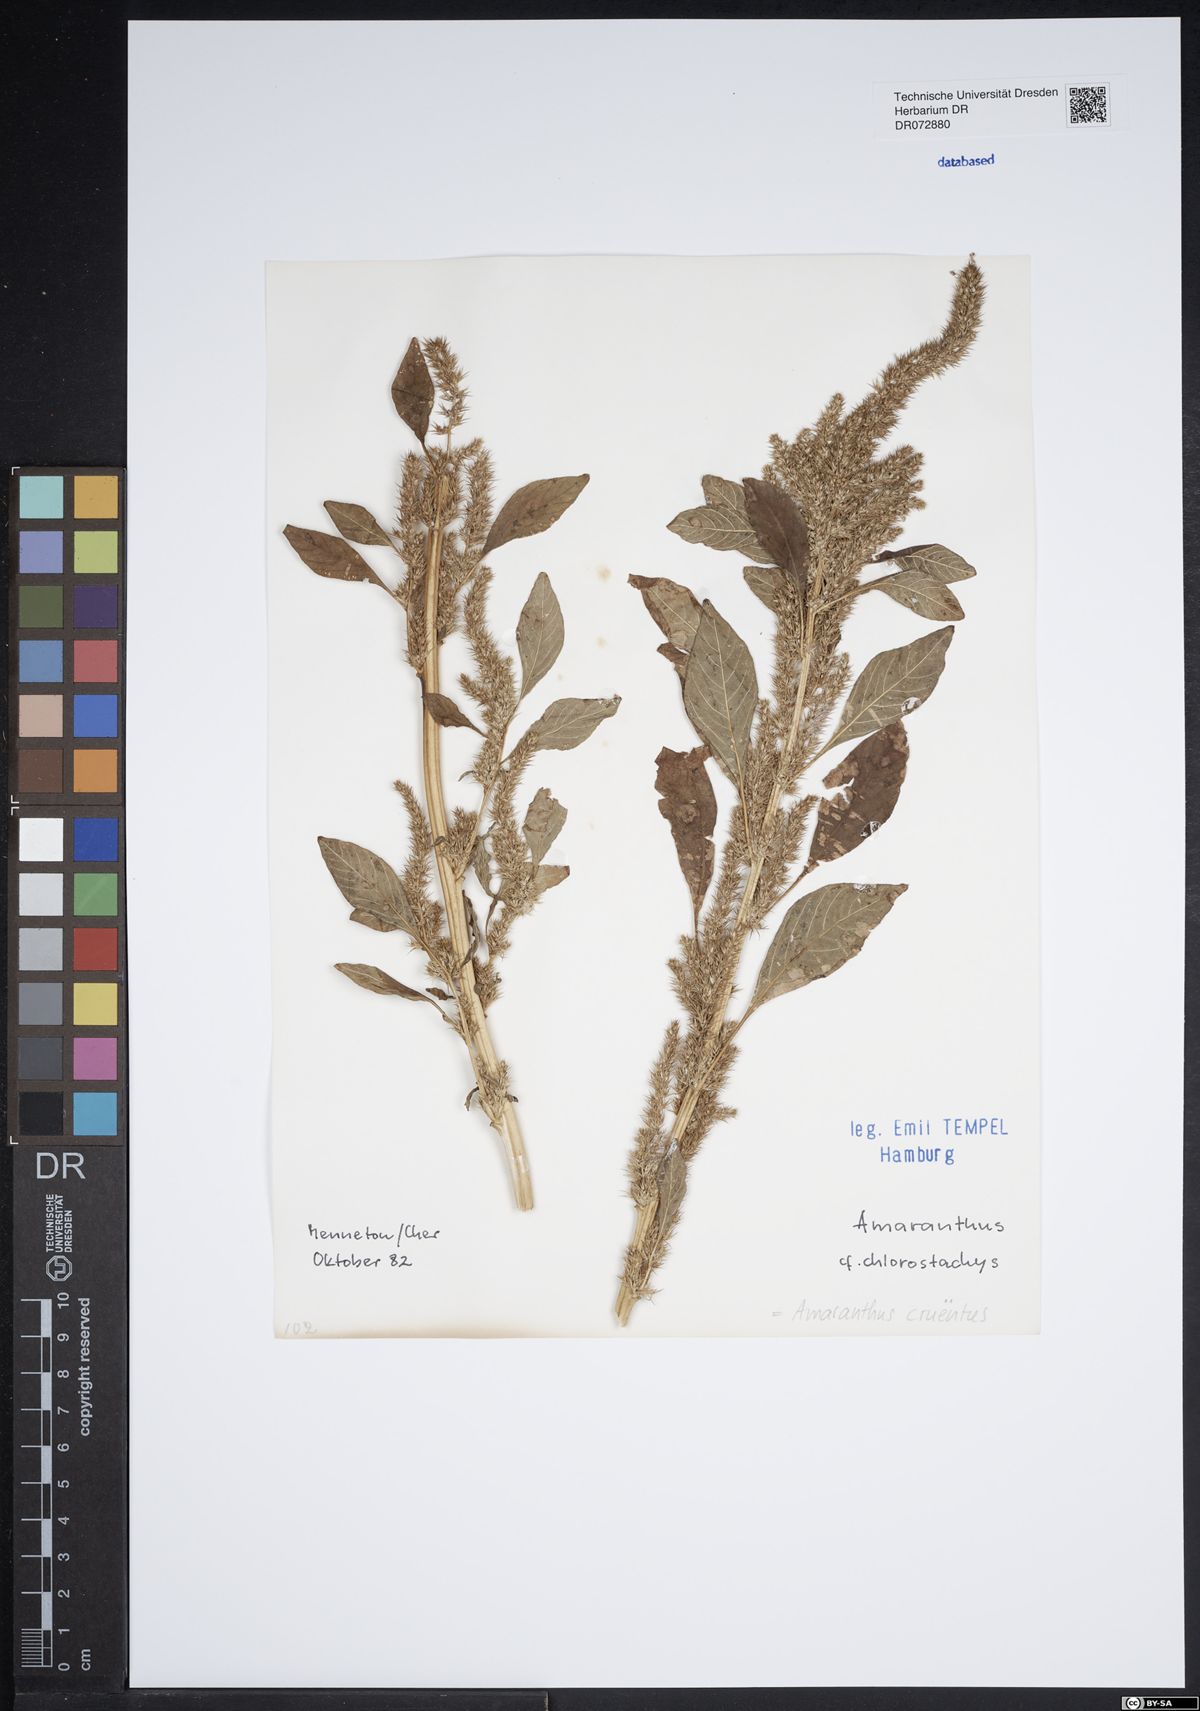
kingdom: Plantae
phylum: Tracheophyta
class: Magnoliopsida
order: Caryophyllales
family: Amaranthaceae
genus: Amaranthus
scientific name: Amaranthus cruentus
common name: Purple amaranth
